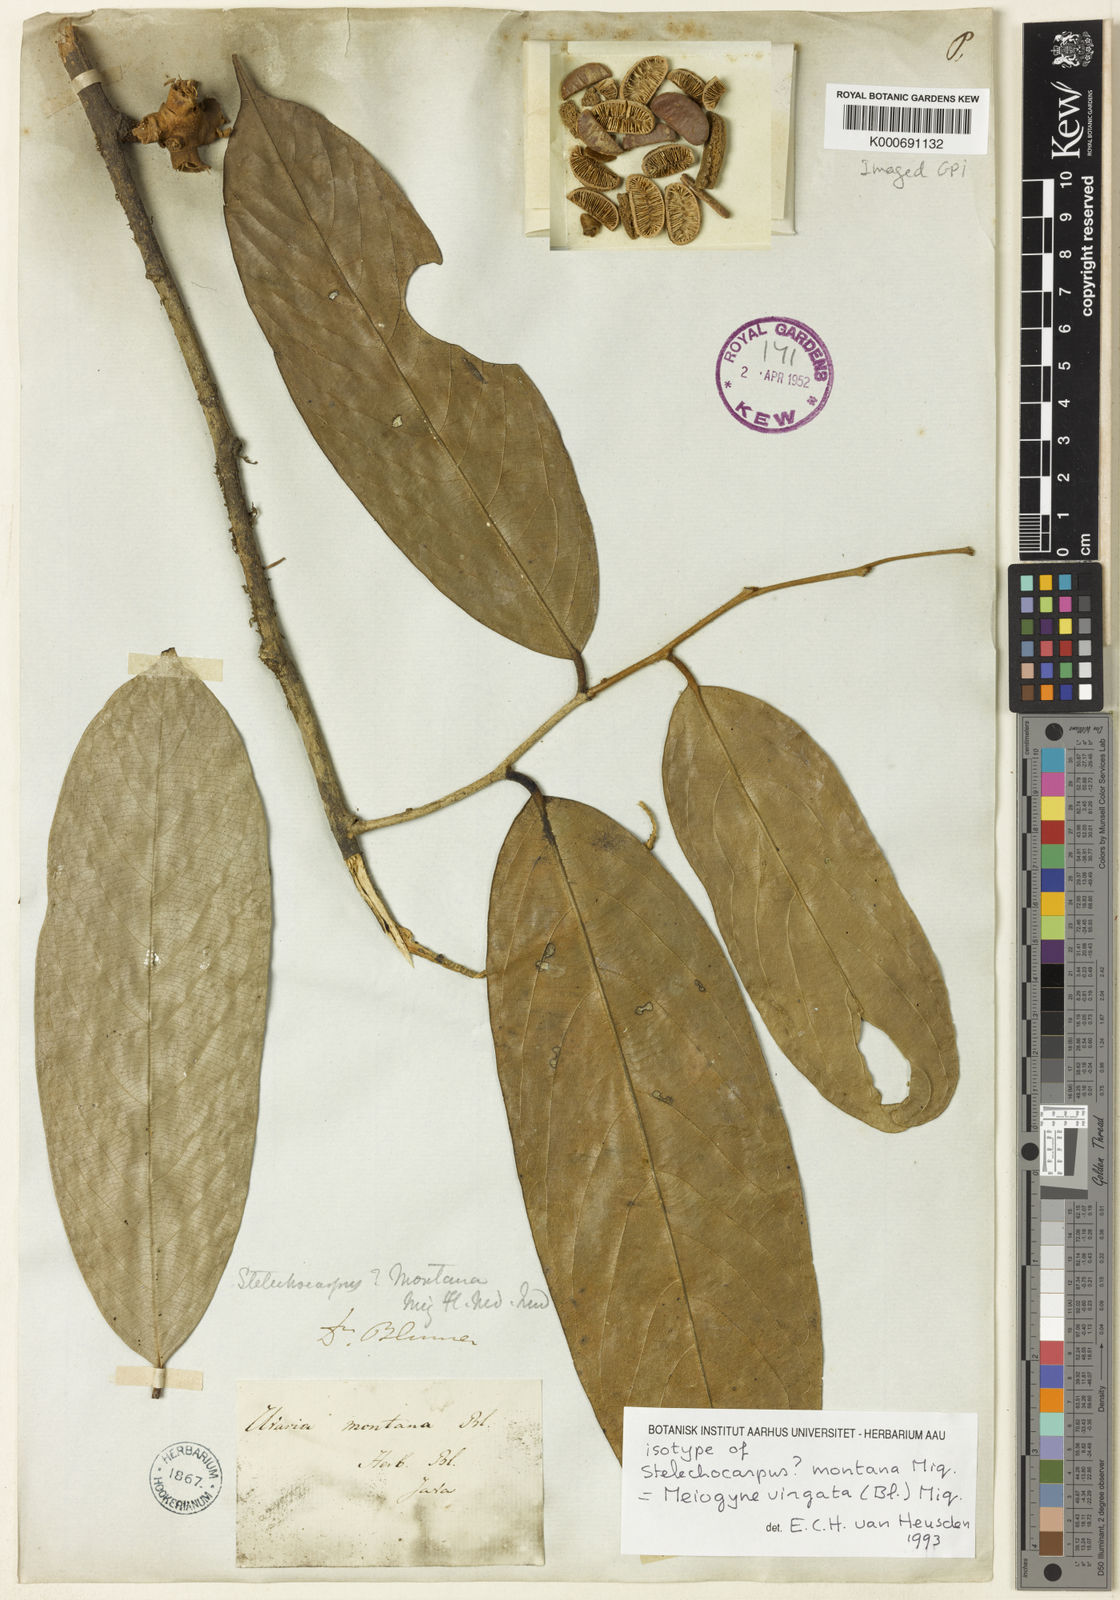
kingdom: Plantae
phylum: Tracheophyta
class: Magnoliopsida
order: Magnoliales
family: Annonaceae
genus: Meiogyne
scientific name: Meiogyne virgata
